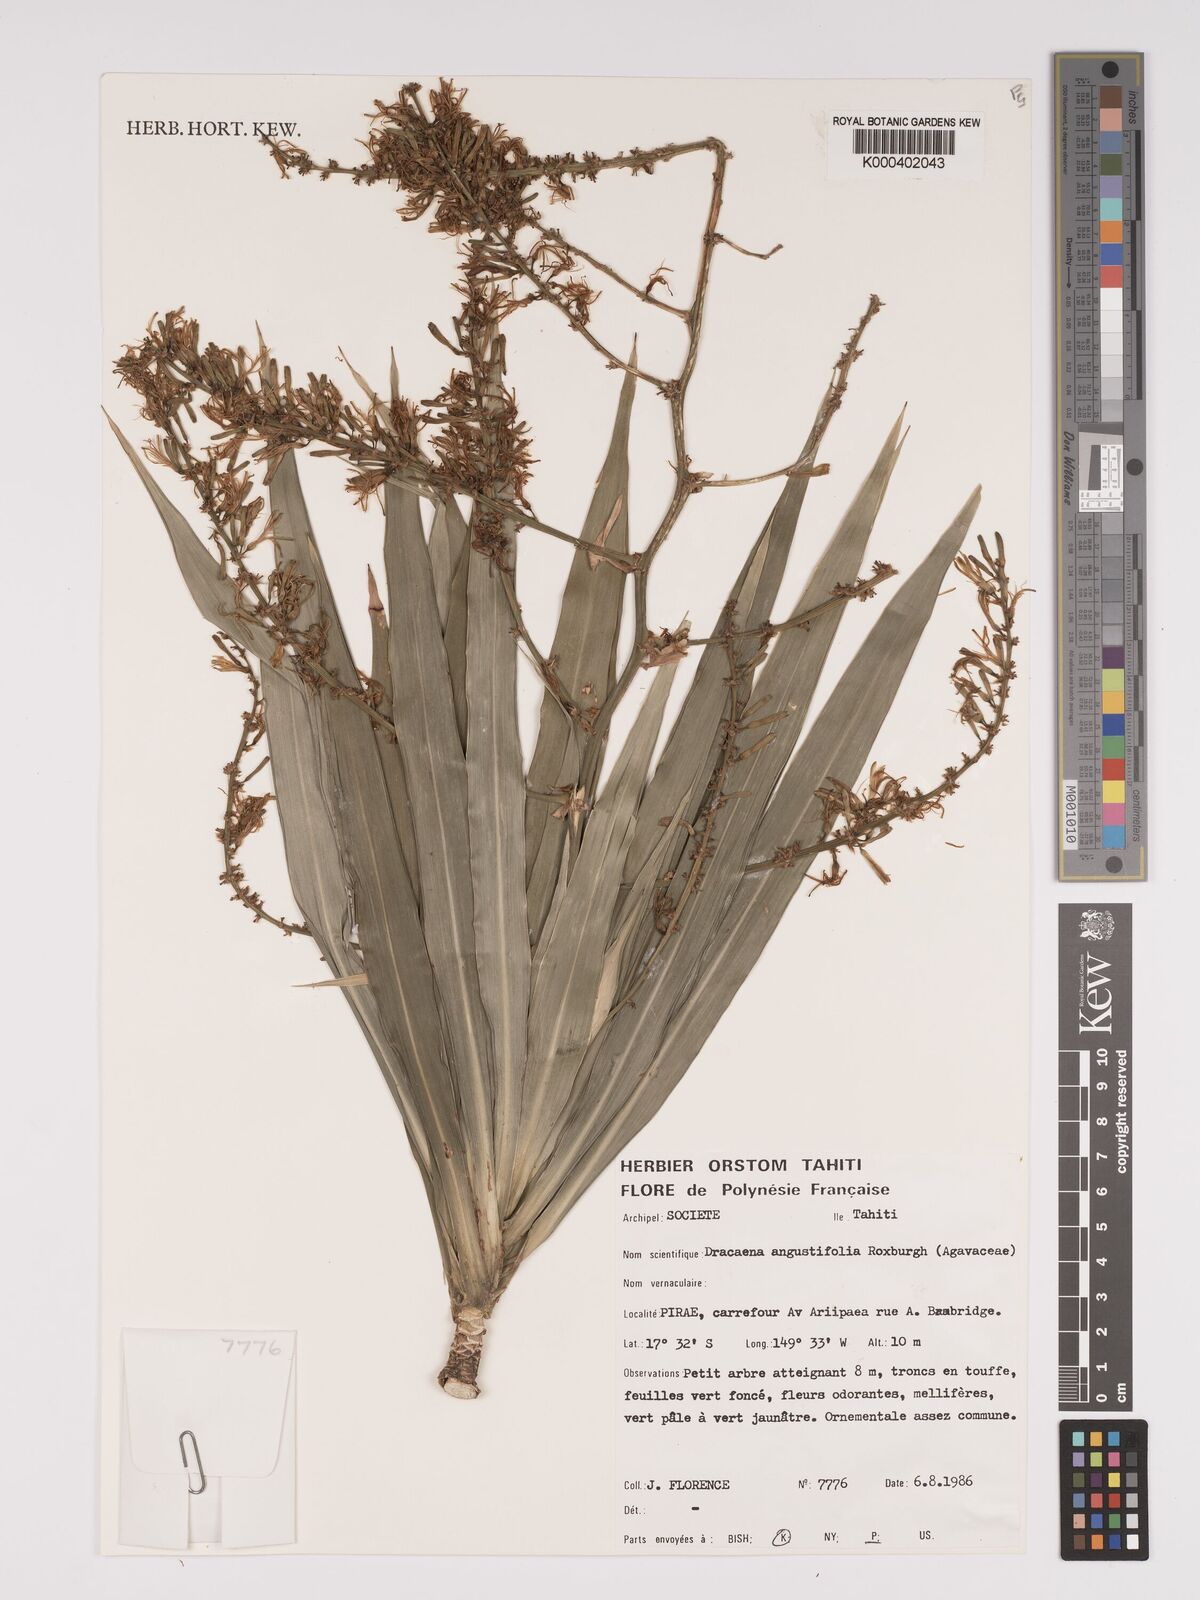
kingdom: Plantae
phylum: Tracheophyta
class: Liliopsida
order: Asparagales
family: Asparagaceae
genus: Dracaena
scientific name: Dracaena angustifolia
